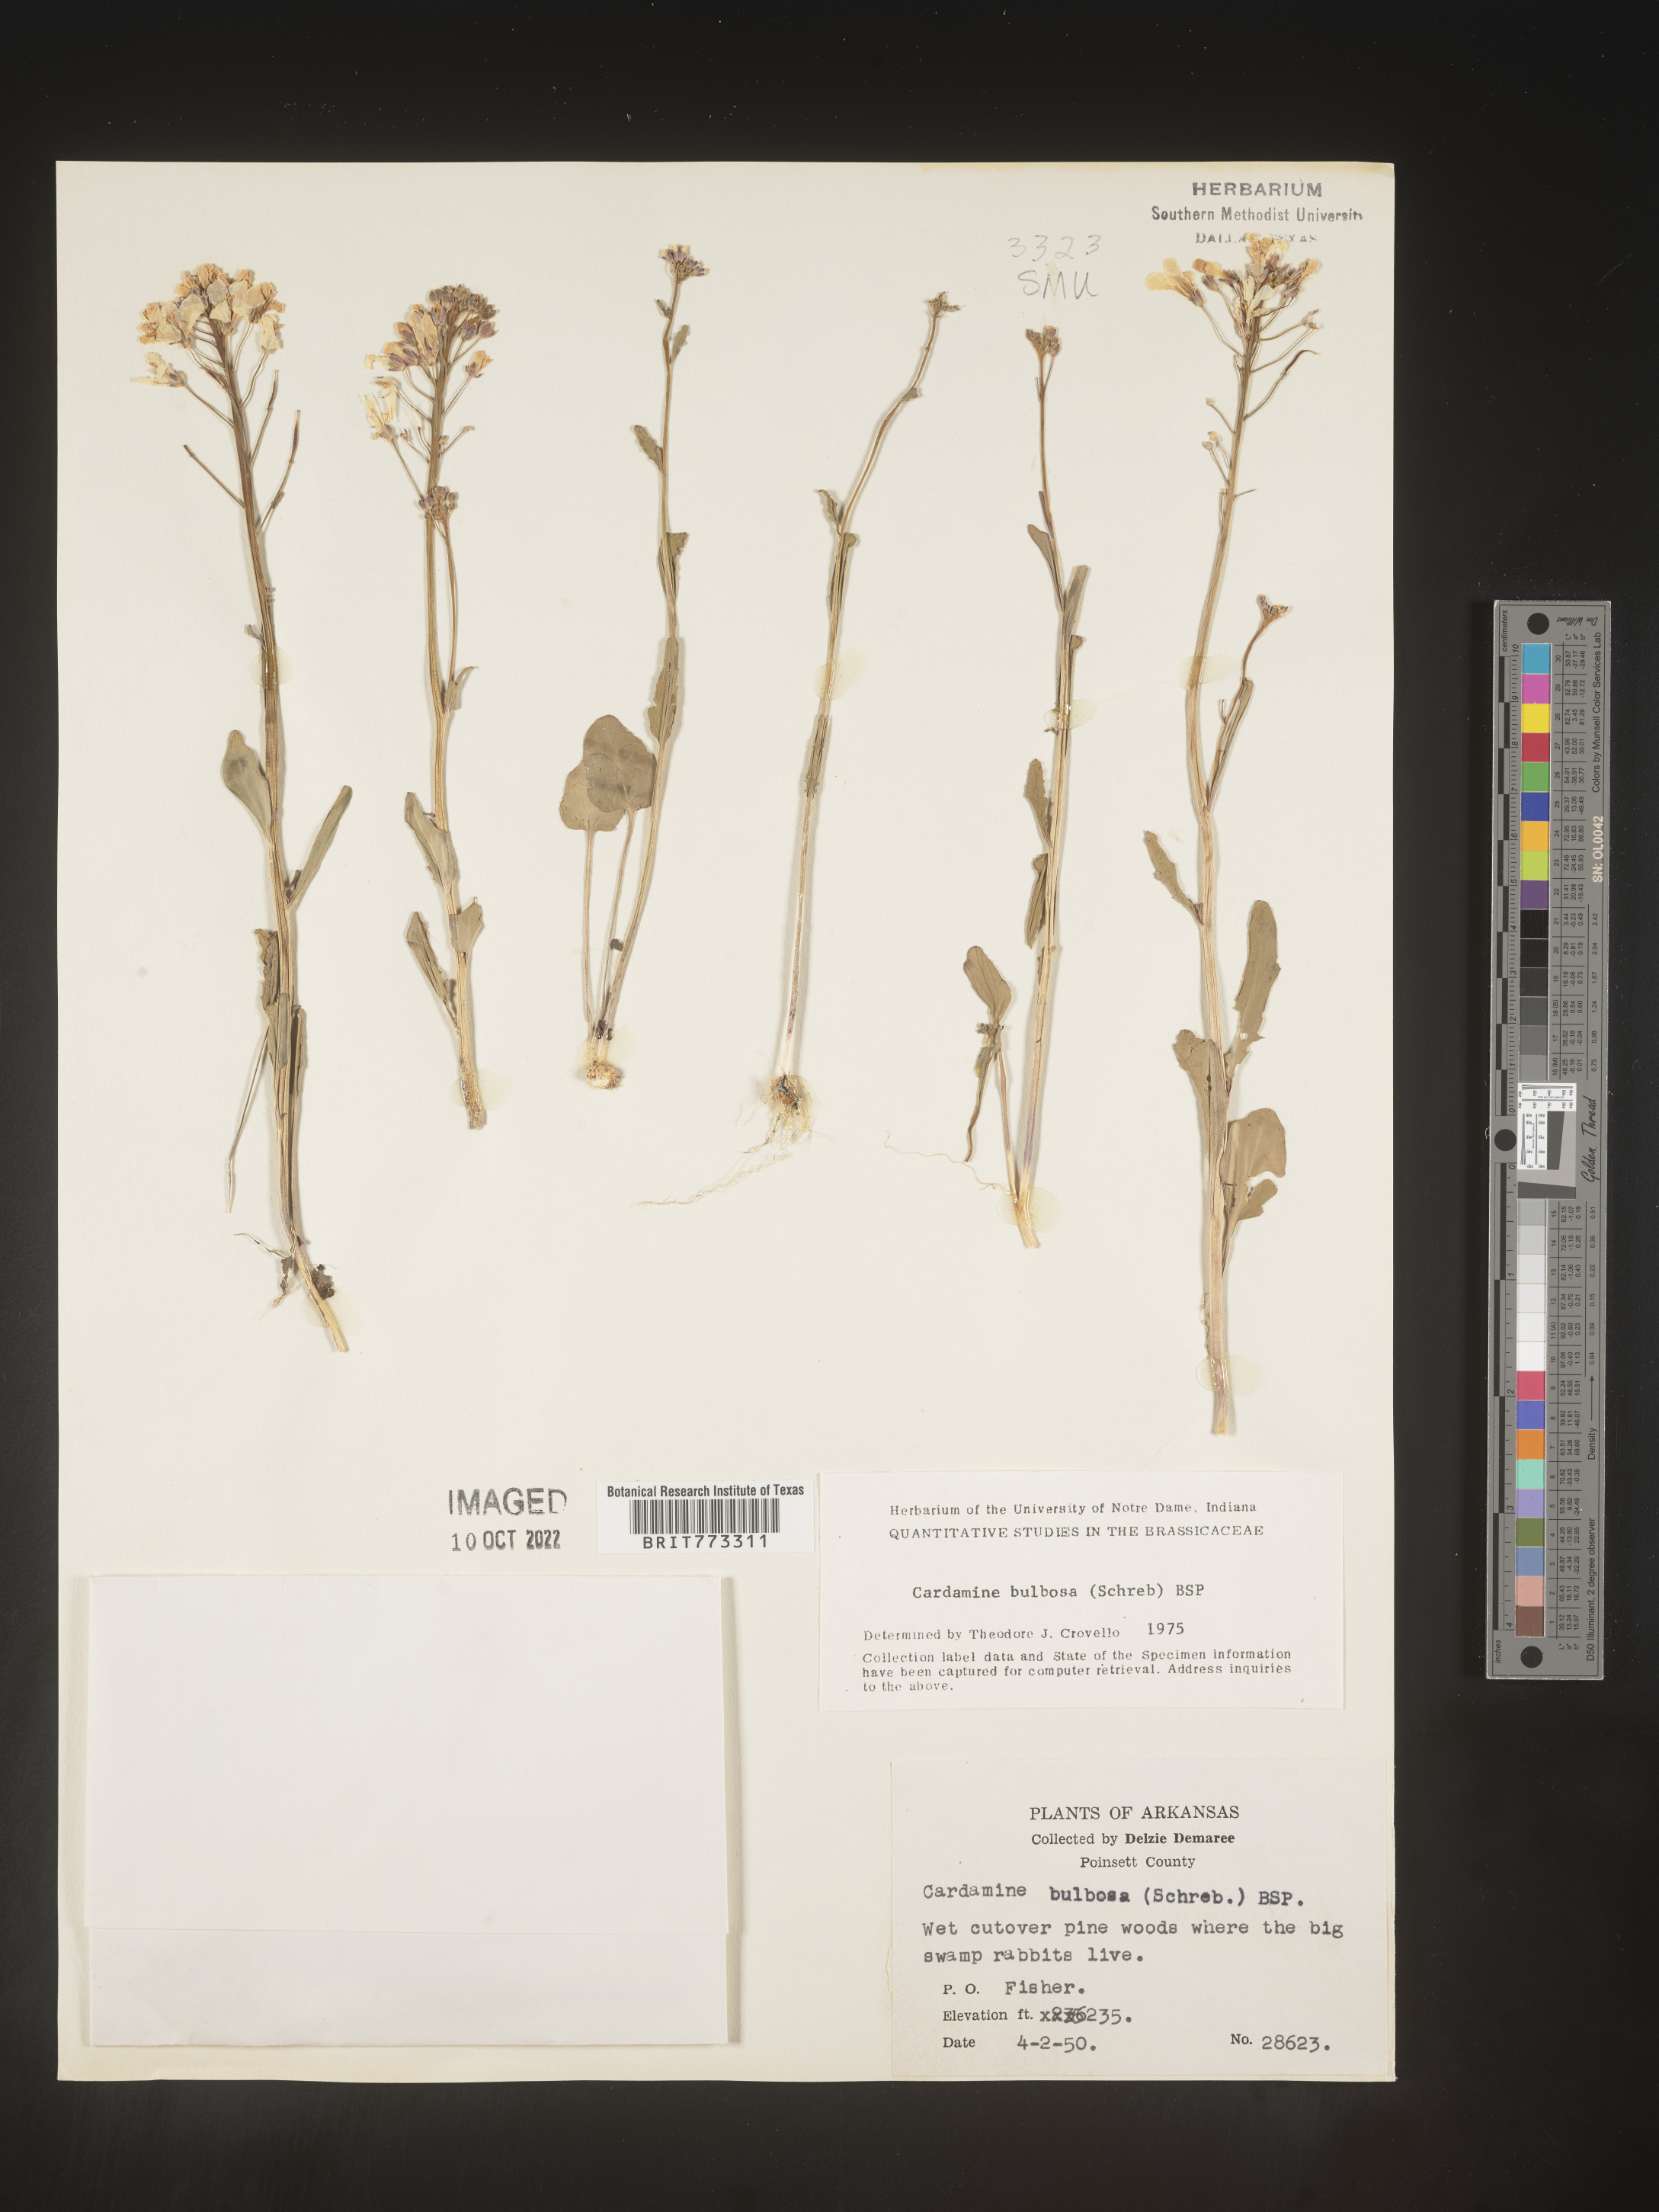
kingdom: Plantae
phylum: Tracheophyta
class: Magnoliopsida
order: Brassicales
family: Brassicaceae
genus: Cardamine
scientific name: Cardamine bulbosa
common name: Spring cress
